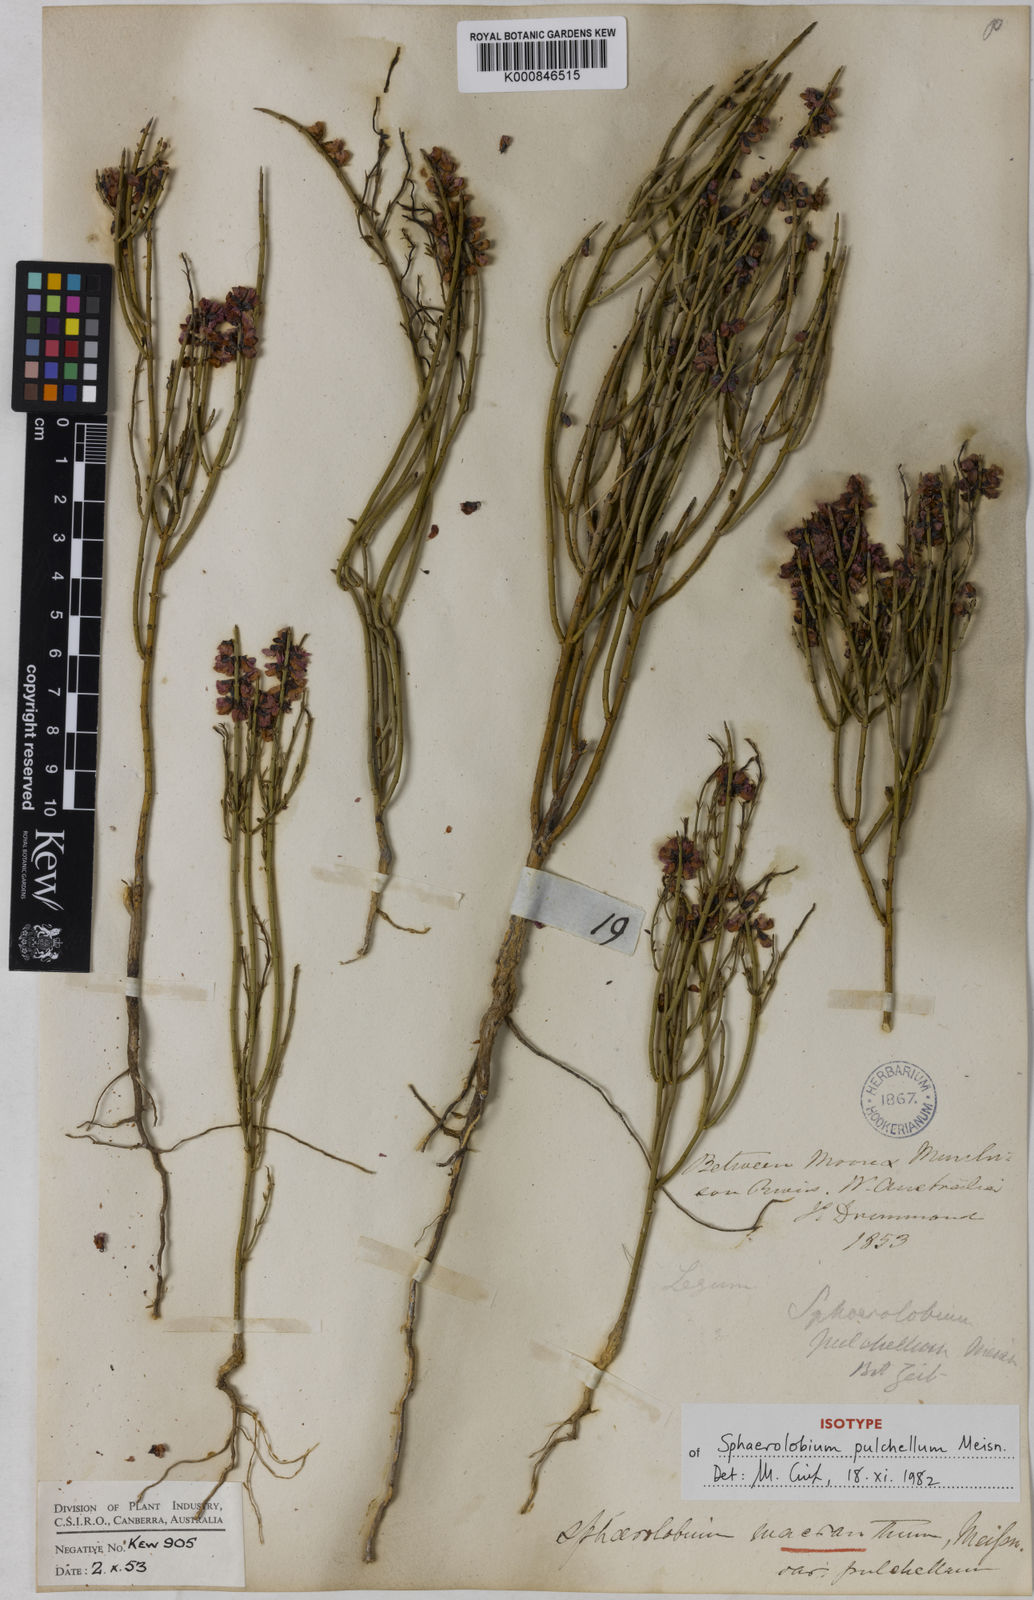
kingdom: Plantae
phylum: Tracheophyta
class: Magnoliopsida
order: Fabales
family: Fabaceae
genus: Sphaerolobium
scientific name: Sphaerolobium macranthum
